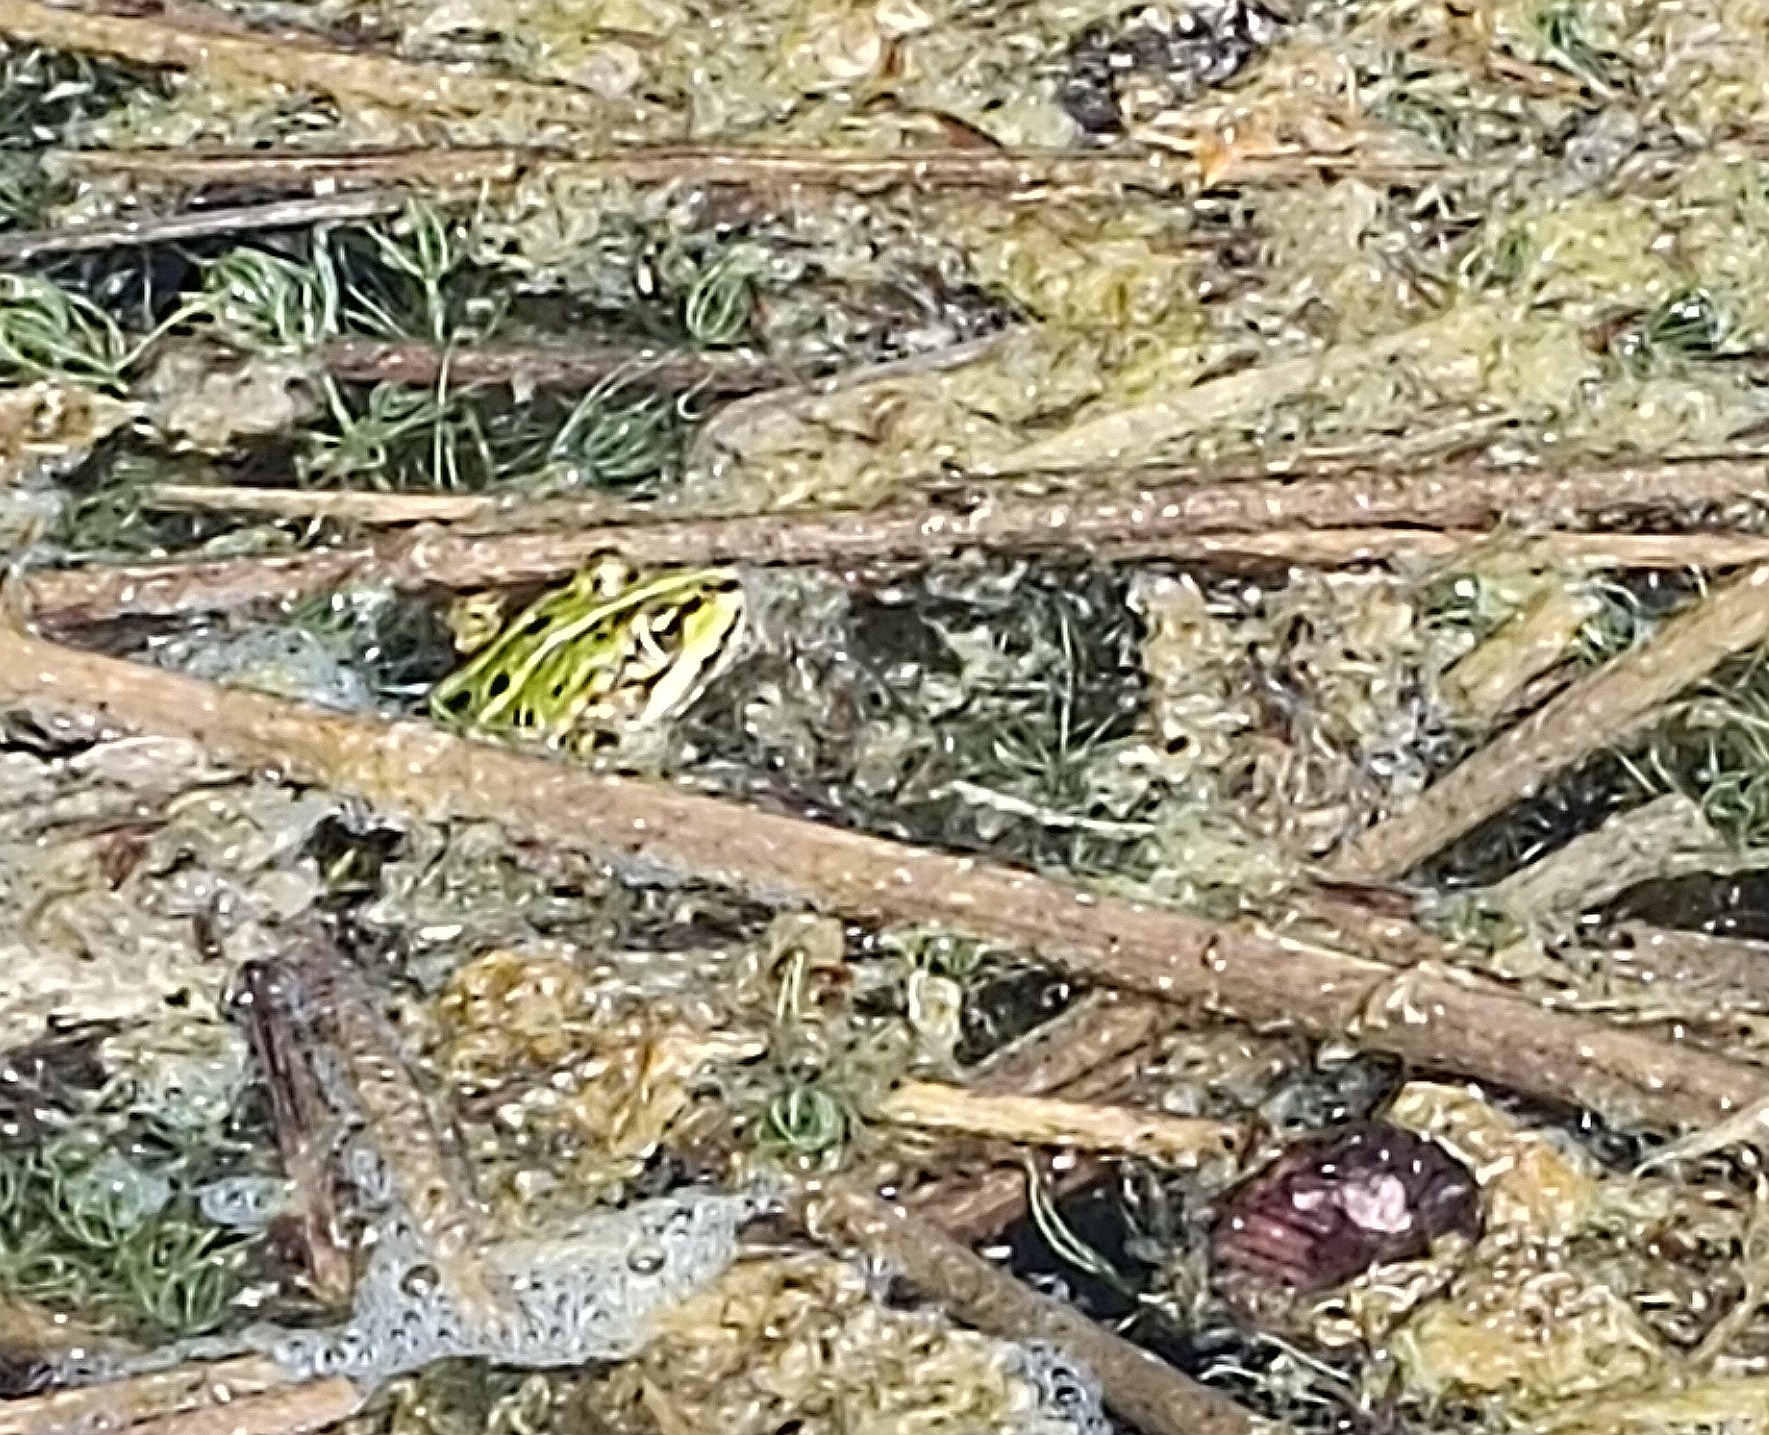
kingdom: Animalia
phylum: Chordata
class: Amphibia
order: Anura
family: Ranidae
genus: Pelophylax
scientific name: Pelophylax lessonae
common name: Grøn frø
